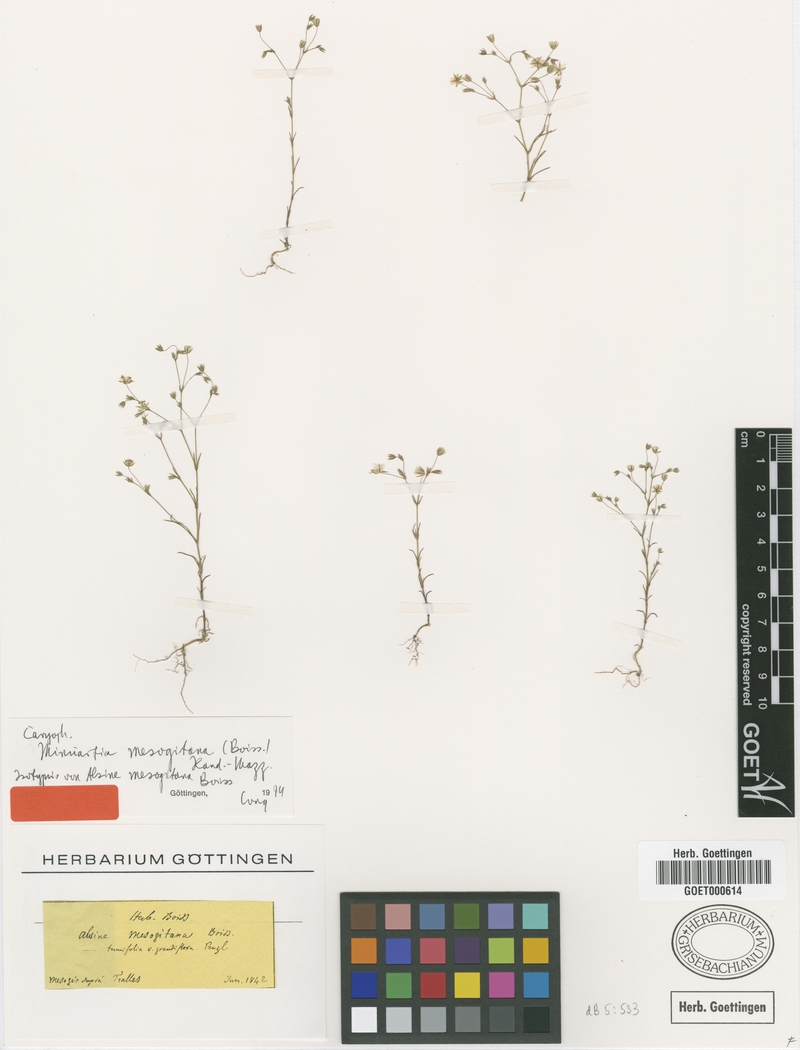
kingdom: Plantae
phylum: Tracheophyta
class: Magnoliopsida
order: Caryophyllales
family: Caryophyllaceae
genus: Sabulina
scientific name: Sabulina mesogitana
